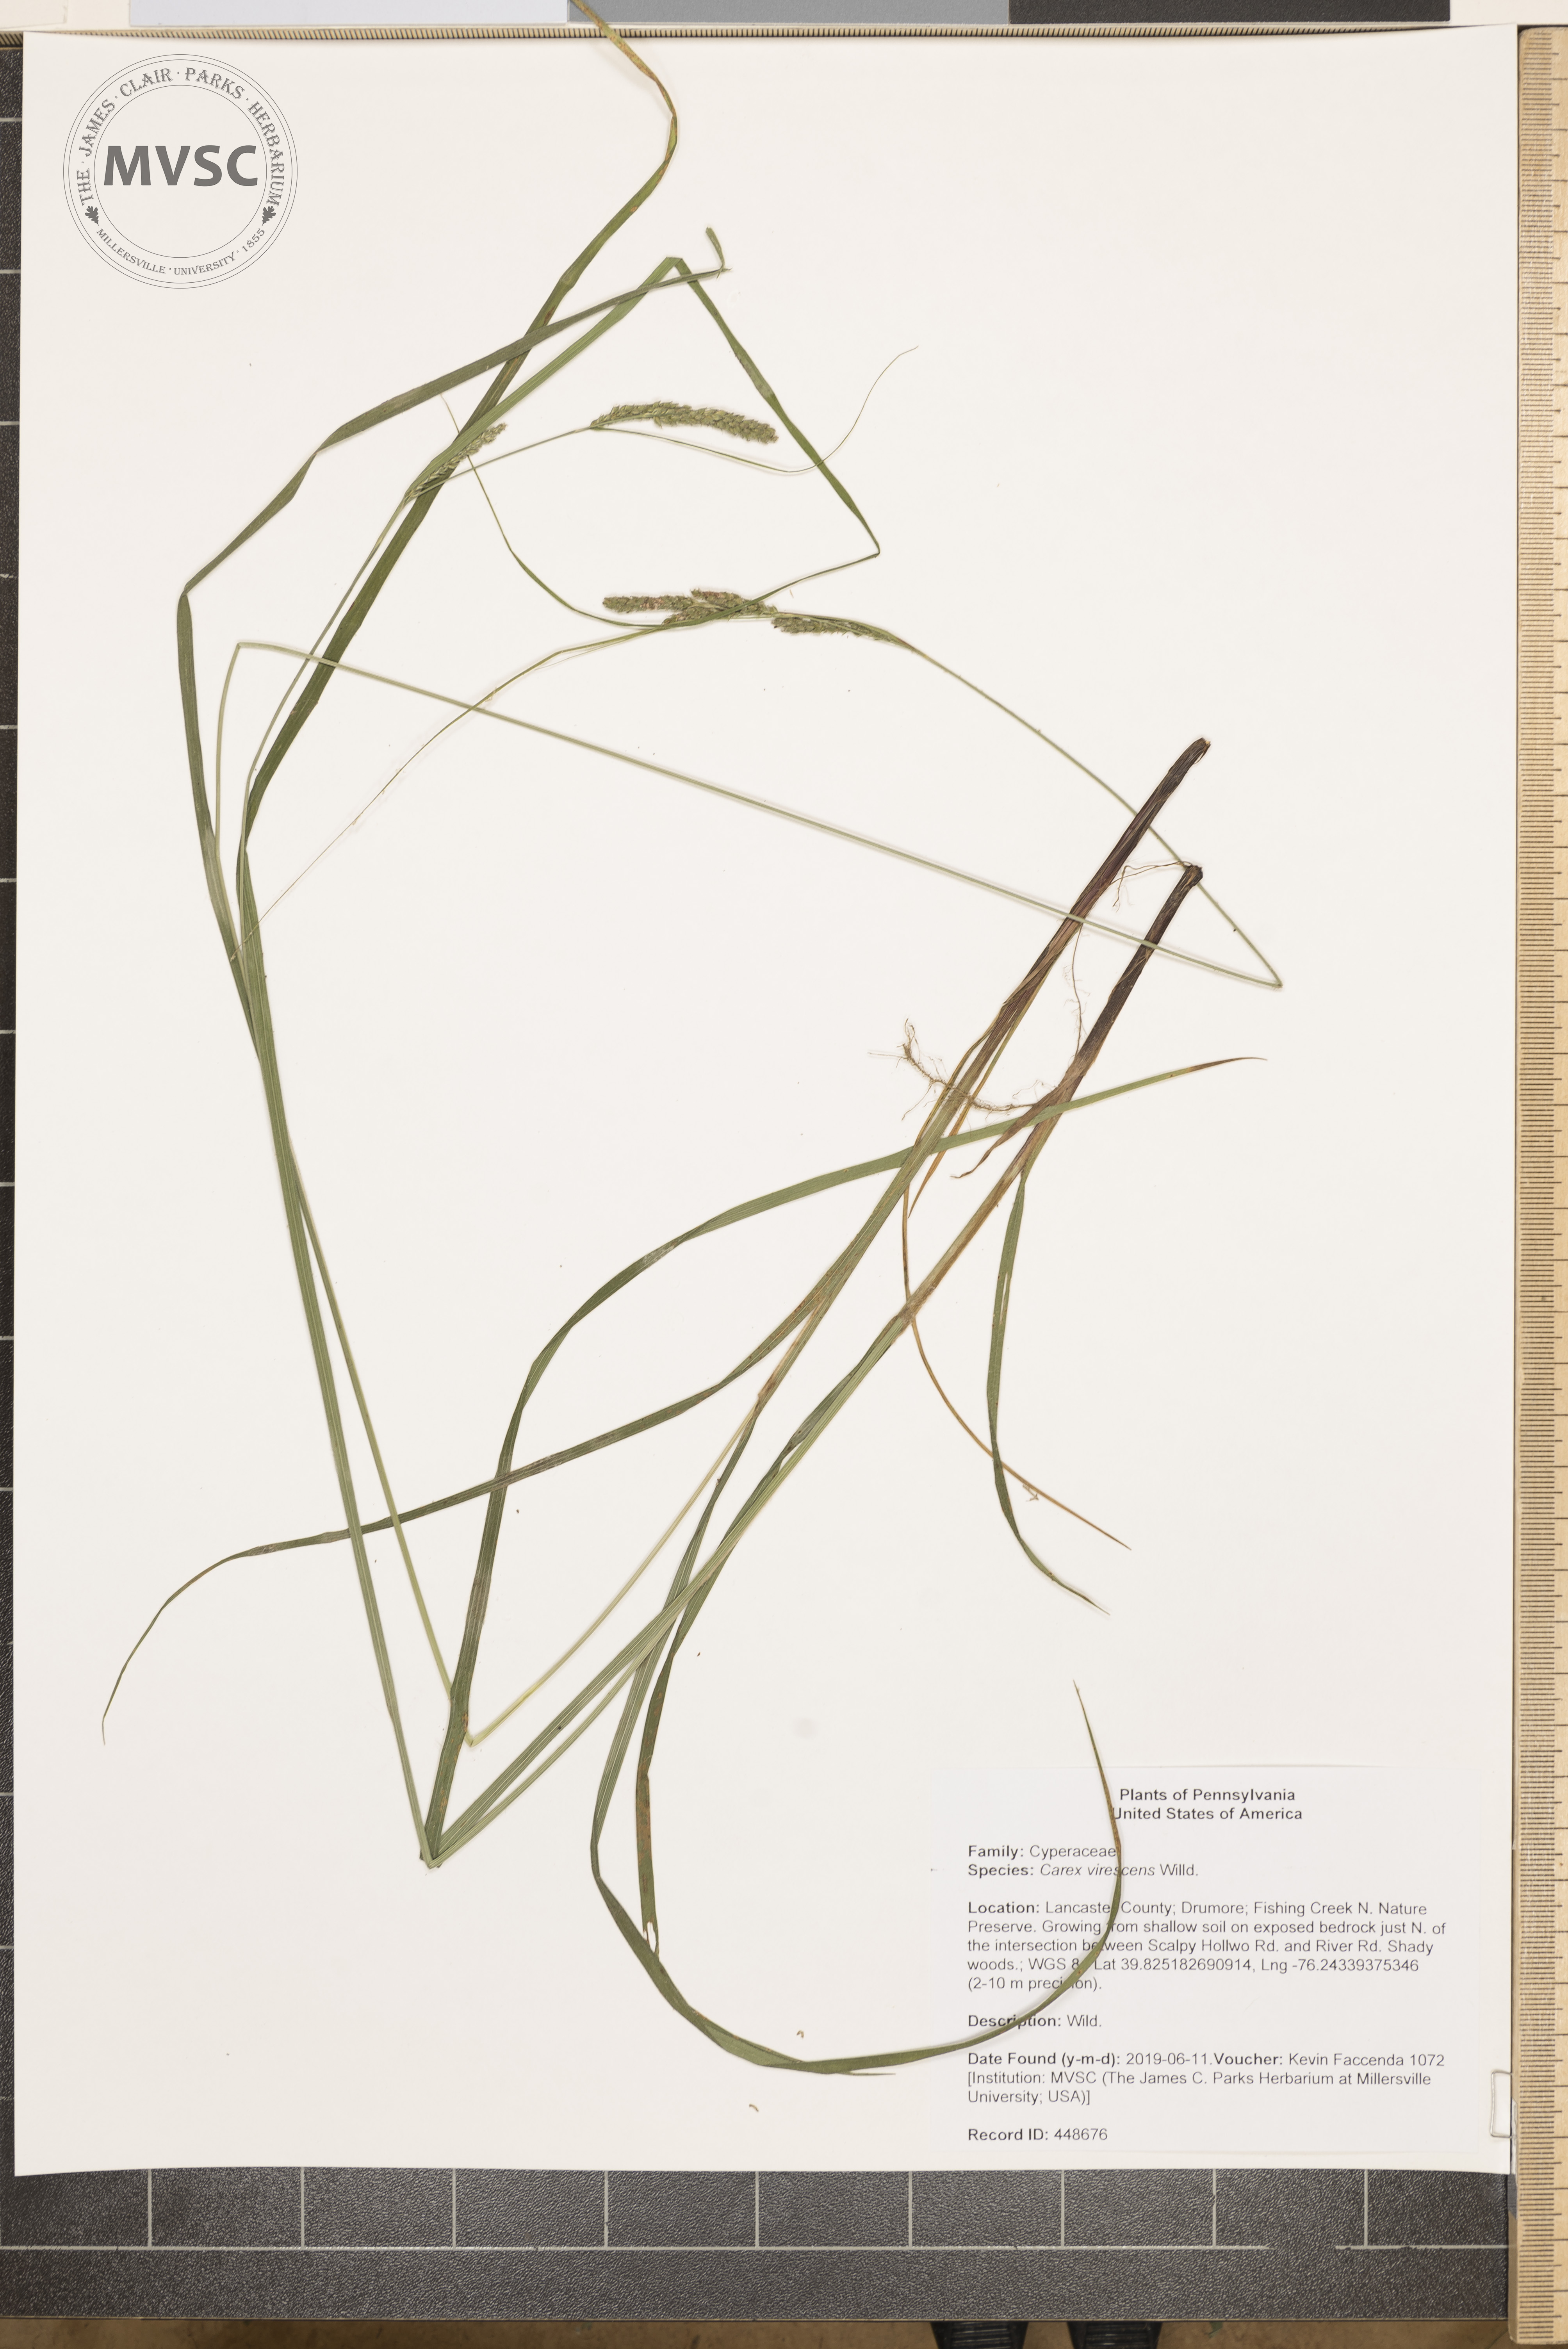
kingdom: Plantae
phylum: Tracheophyta
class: Liliopsida
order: Poales
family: Cyperaceae
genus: Carex
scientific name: Carex virescens
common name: Ribbed sedge
